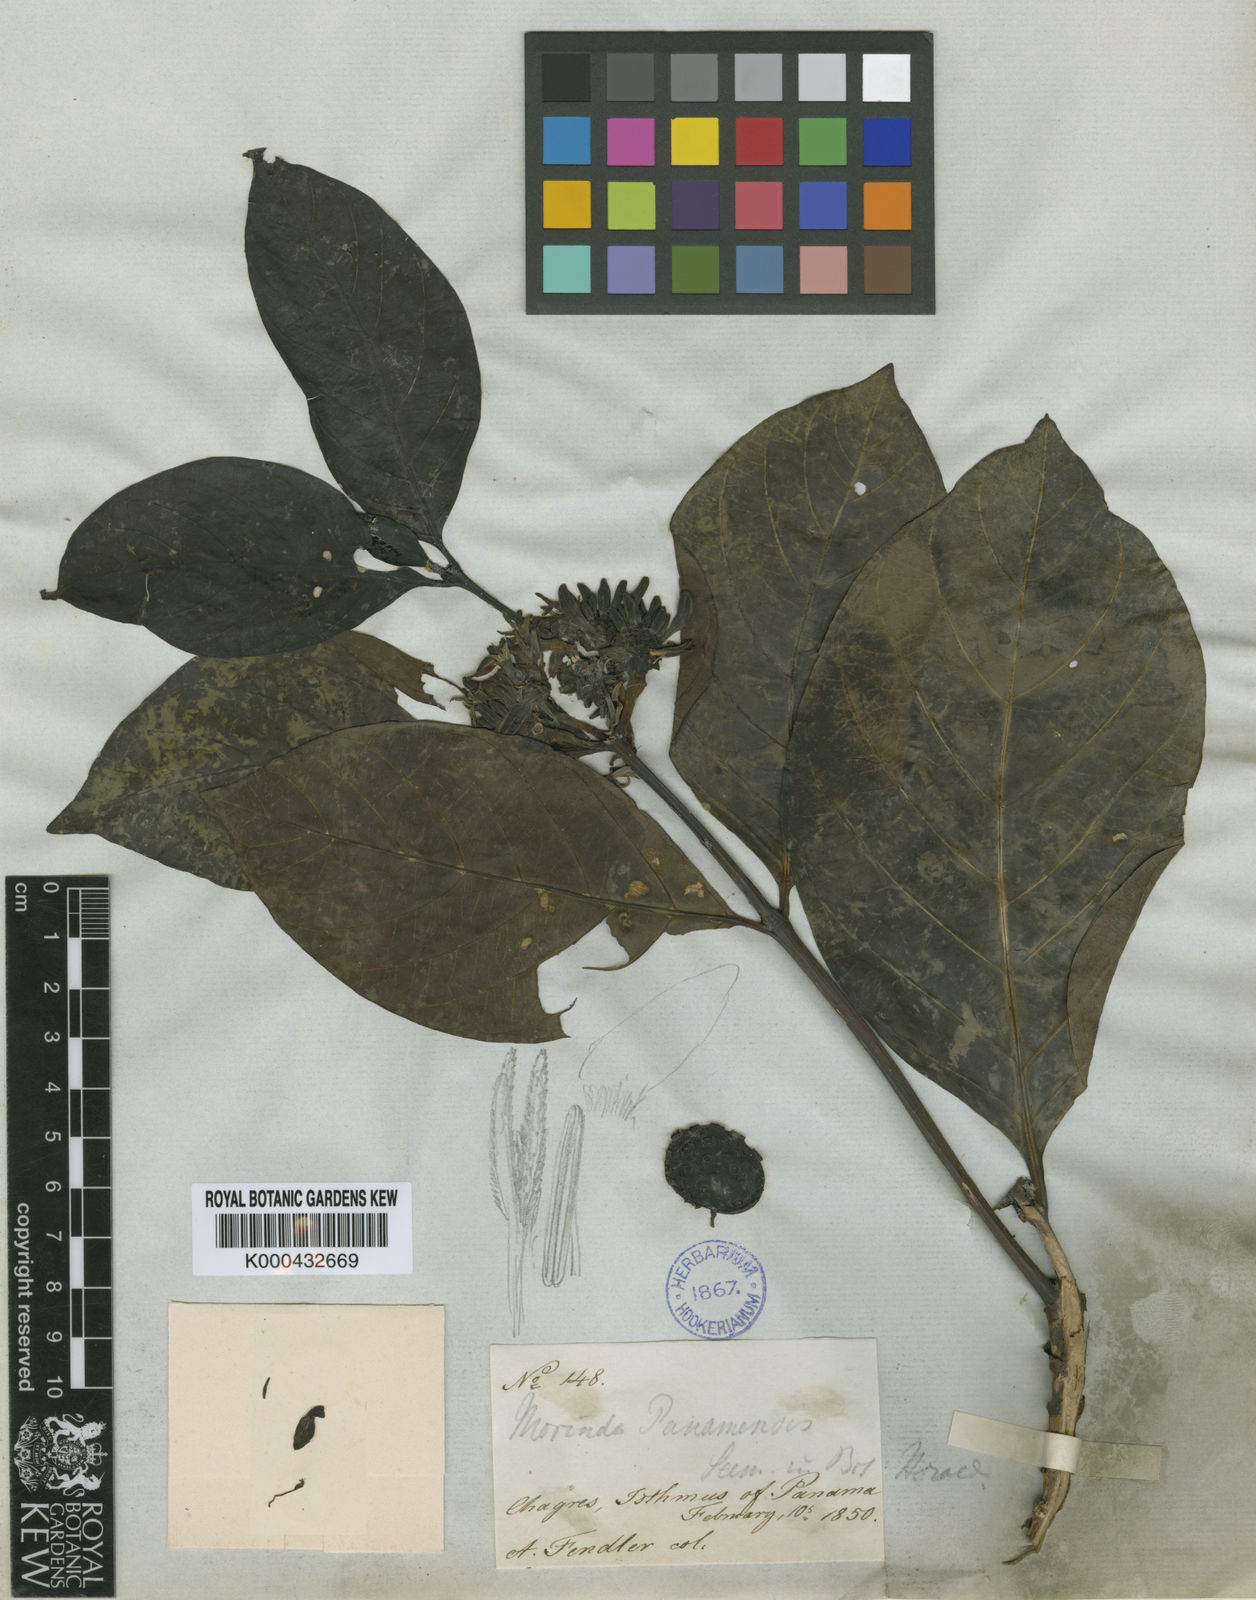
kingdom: Plantae
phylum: Tracheophyta
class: Magnoliopsida
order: Gentianales
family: Rubiaceae
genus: Morinda
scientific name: Morinda panamensis
